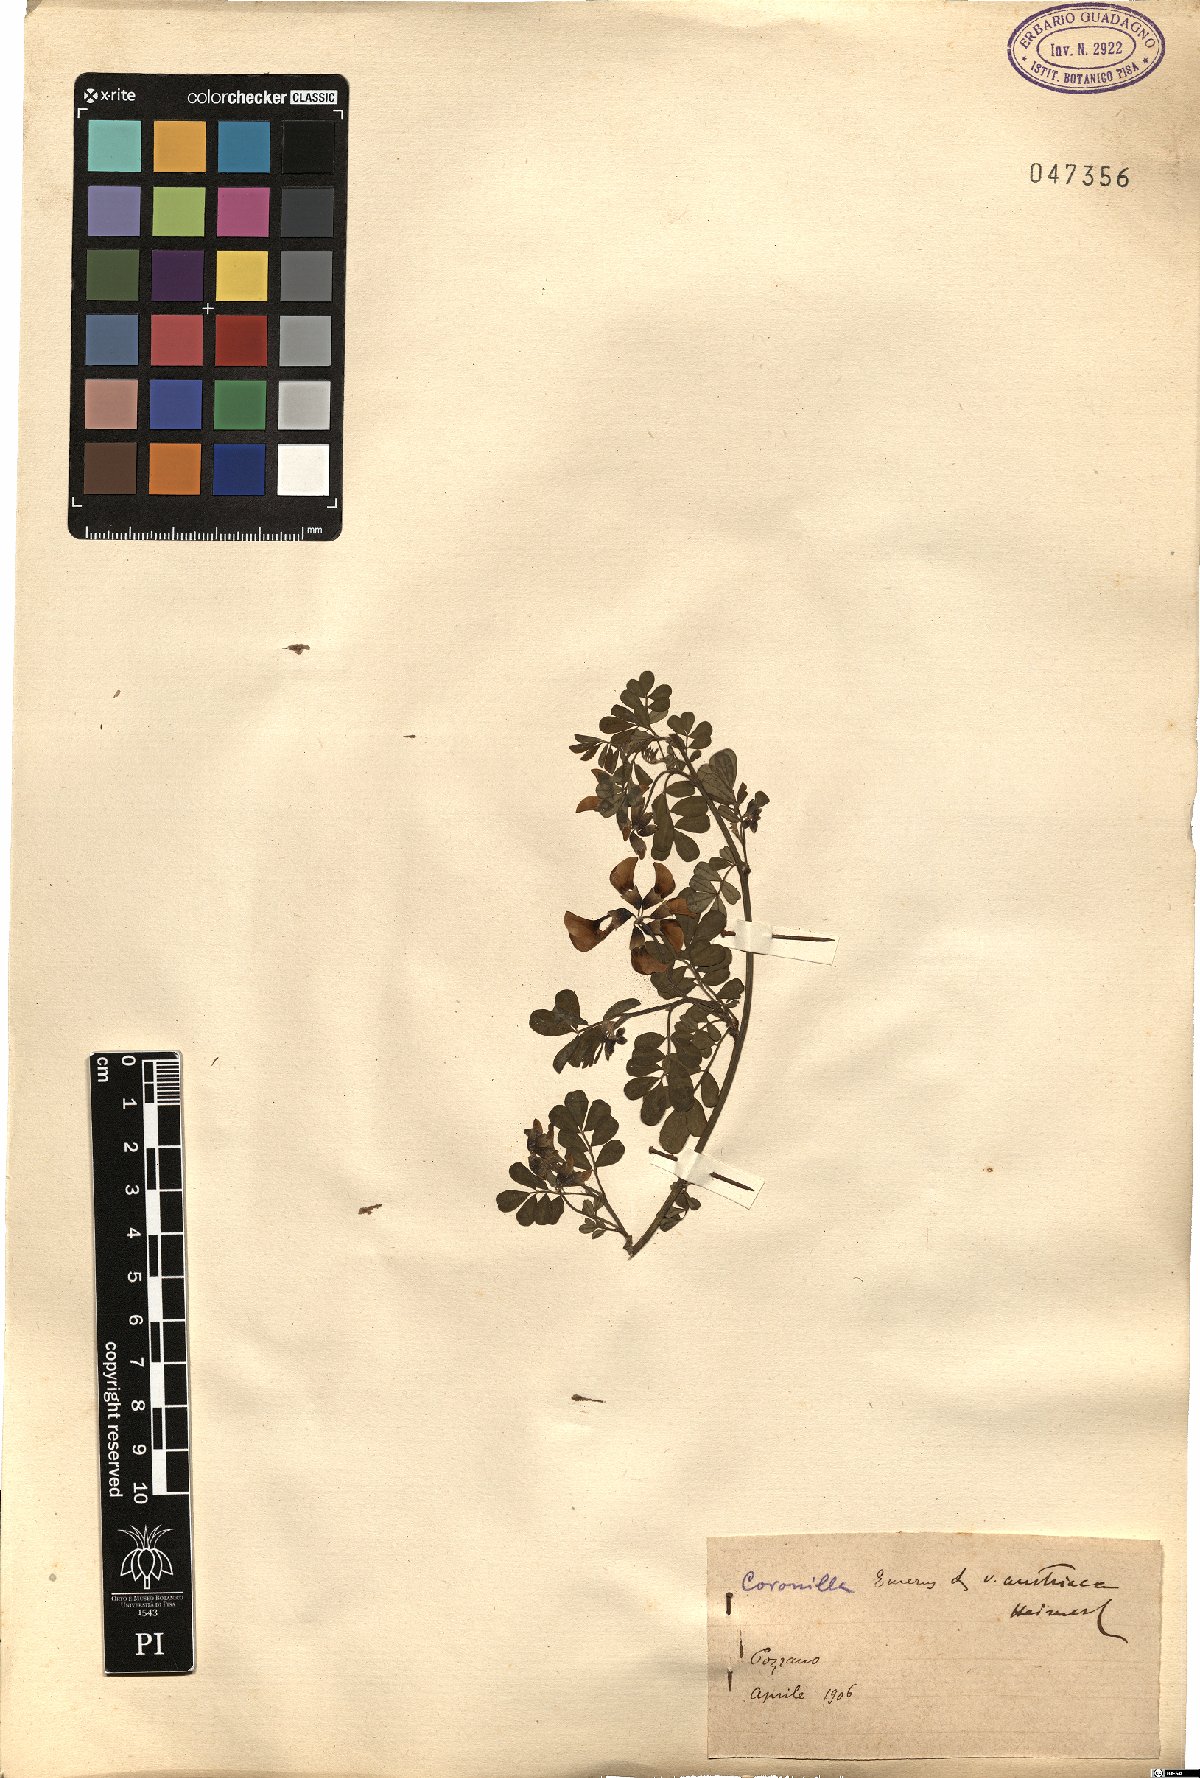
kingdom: Plantae
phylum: Tracheophyta
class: Magnoliopsida
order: Fabales
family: Fabaceae
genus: Hippocrepis
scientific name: Hippocrepis emerus
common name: Scorpion senna
